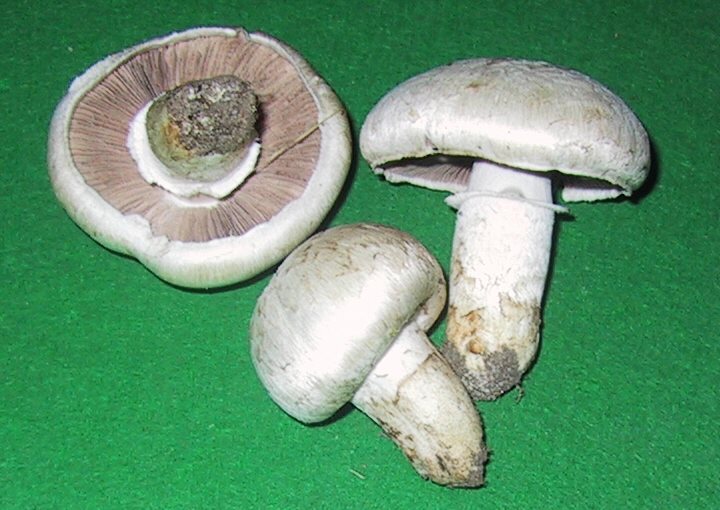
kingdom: Fungi
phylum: Basidiomycota
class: Agaricomycetes
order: Agaricales
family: Agaricaceae
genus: Agaricus
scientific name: Agaricus campestris
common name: mark-champignon
